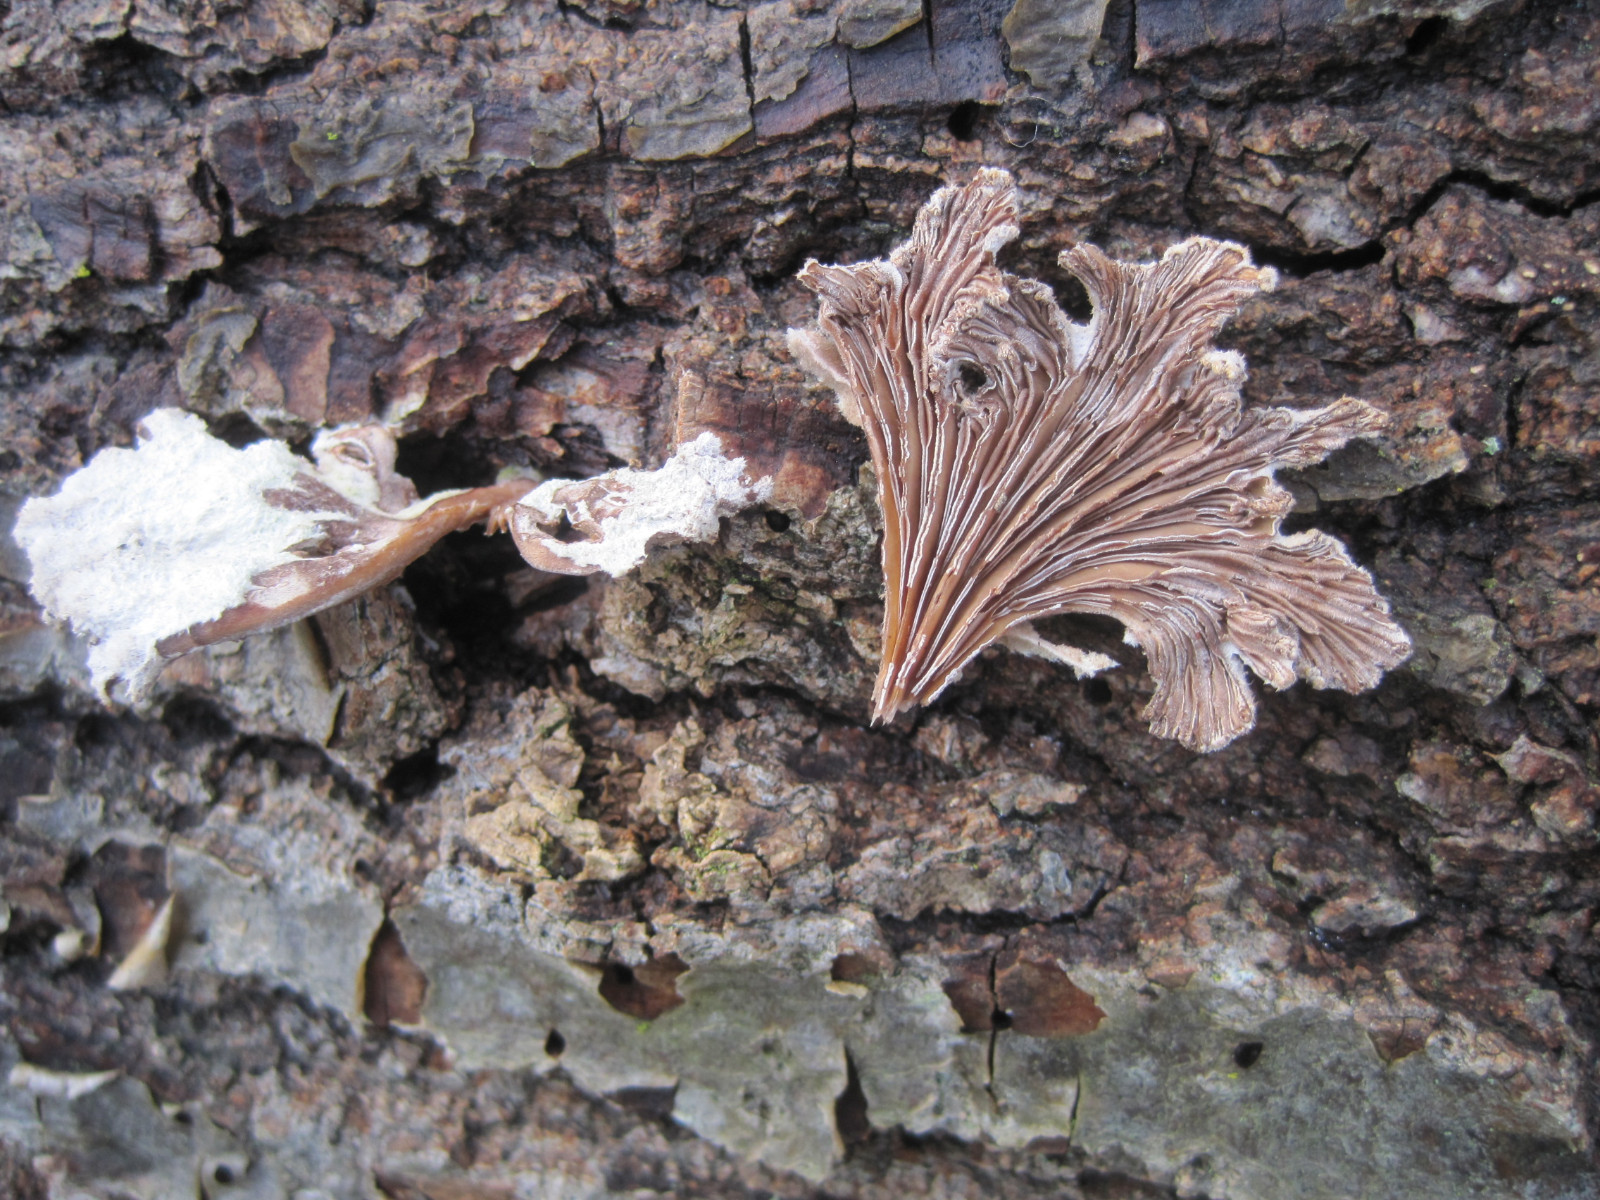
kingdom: Fungi
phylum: Basidiomycota
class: Agaricomycetes
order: Agaricales
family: Schizophyllaceae
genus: Schizophyllum
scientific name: Schizophyllum commune
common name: kløvblad
